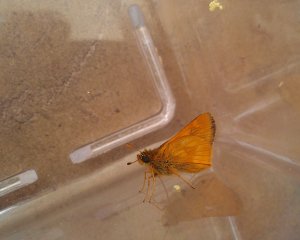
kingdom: Animalia
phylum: Arthropoda
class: Insecta
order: Lepidoptera
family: Hesperiidae
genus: Polites
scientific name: Polites
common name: Long Dash Skipper
